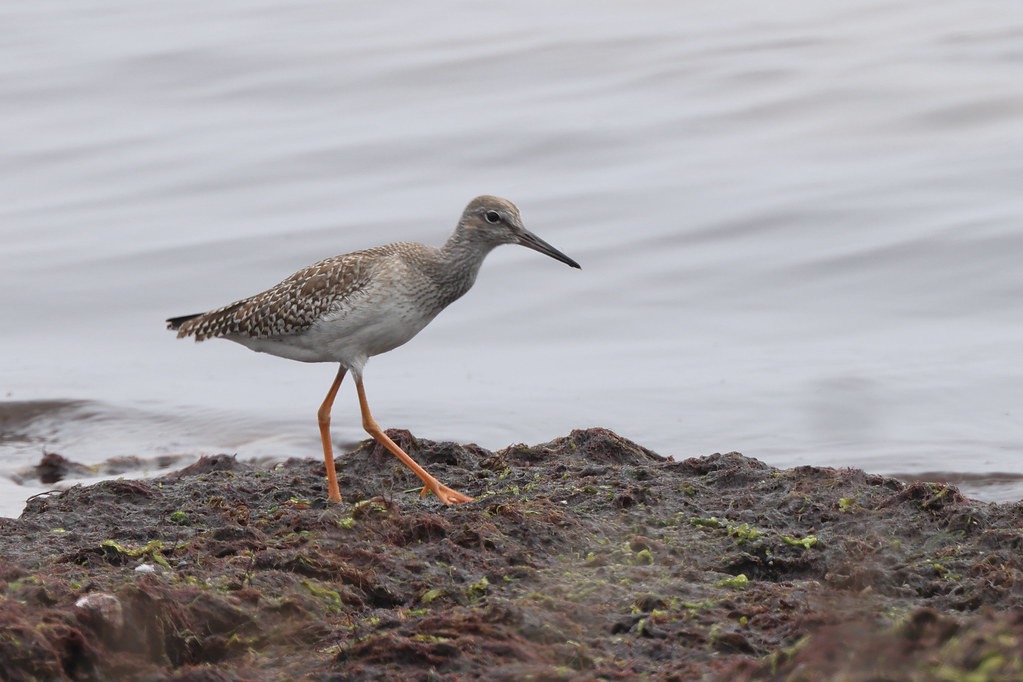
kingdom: Animalia
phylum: Chordata
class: Aves
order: Charadriiformes
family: Scolopacidae
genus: Tringa
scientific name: Tringa totanus
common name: Rødben
